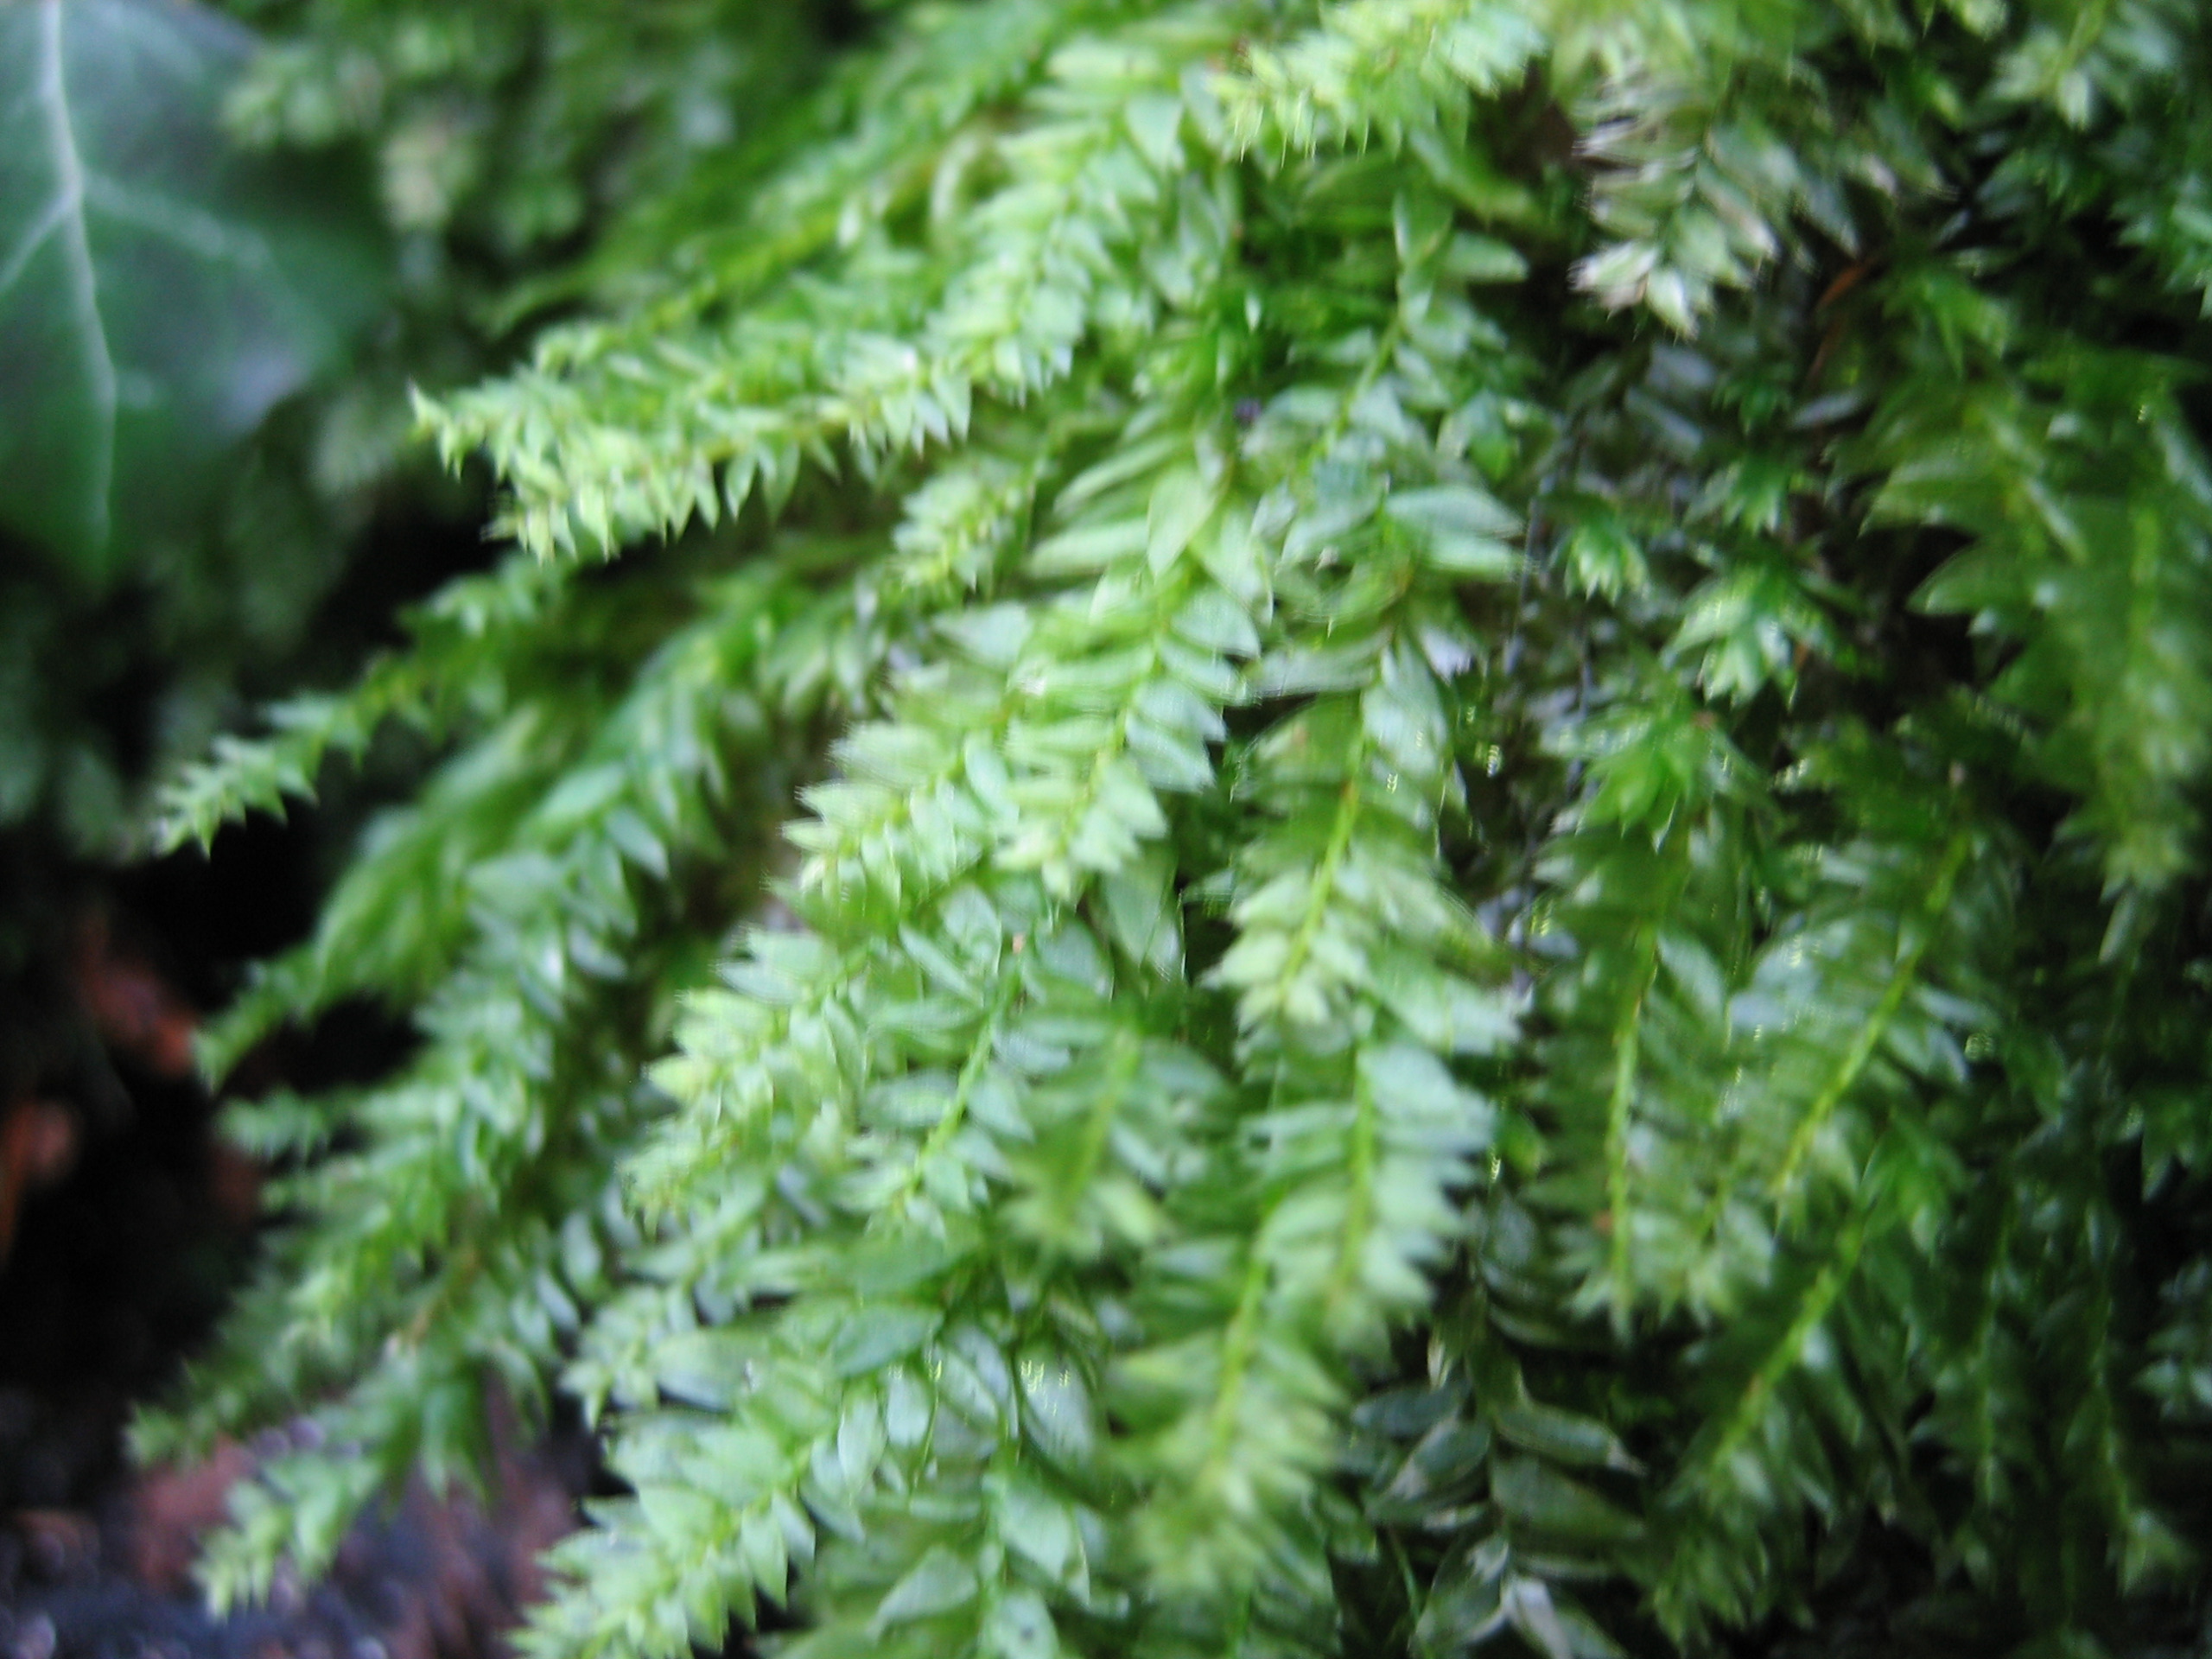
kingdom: Plantae
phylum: Bryophyta
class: Bryopsida
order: Hypnales
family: Plagiotheciaceae
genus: Plagiothecium
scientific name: Plagiothecium
